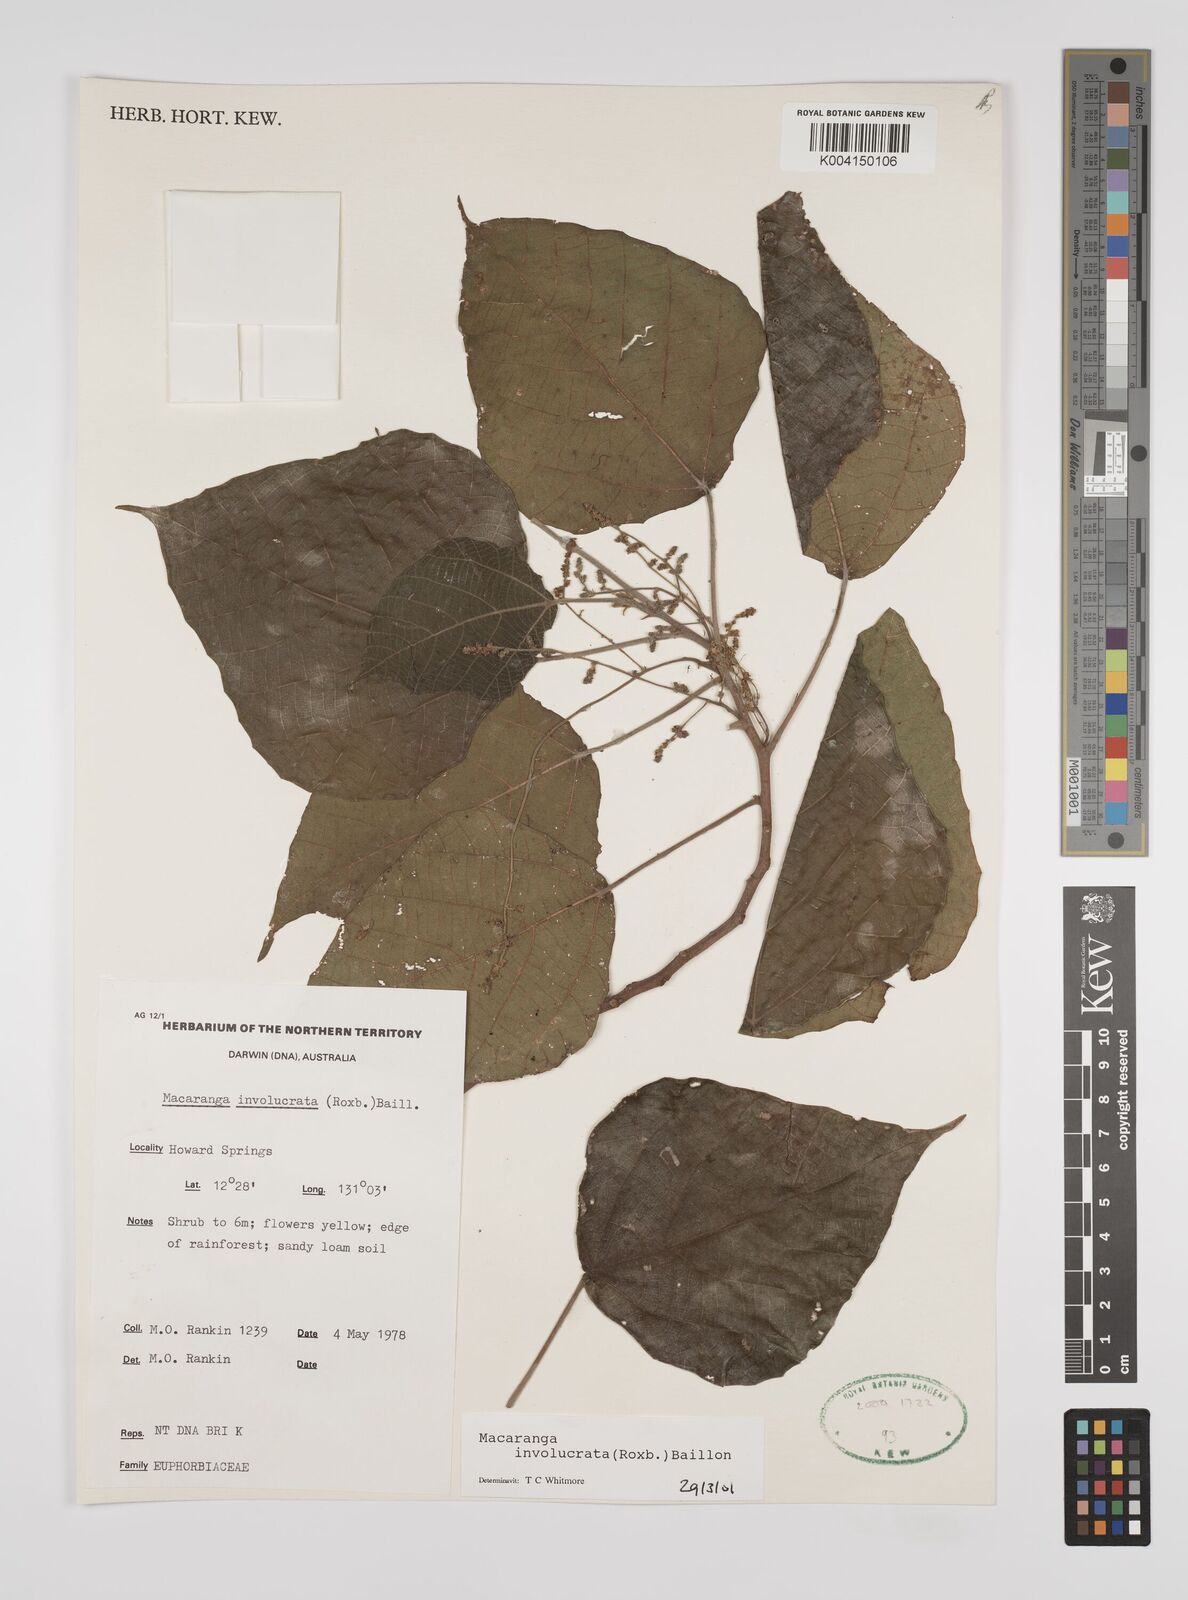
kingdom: Plantae
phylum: Tracheophyta
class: Magnoliopsida
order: Malpighiales
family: Euphorbiaceae
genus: Macaranga
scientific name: Macaranga involucrata
